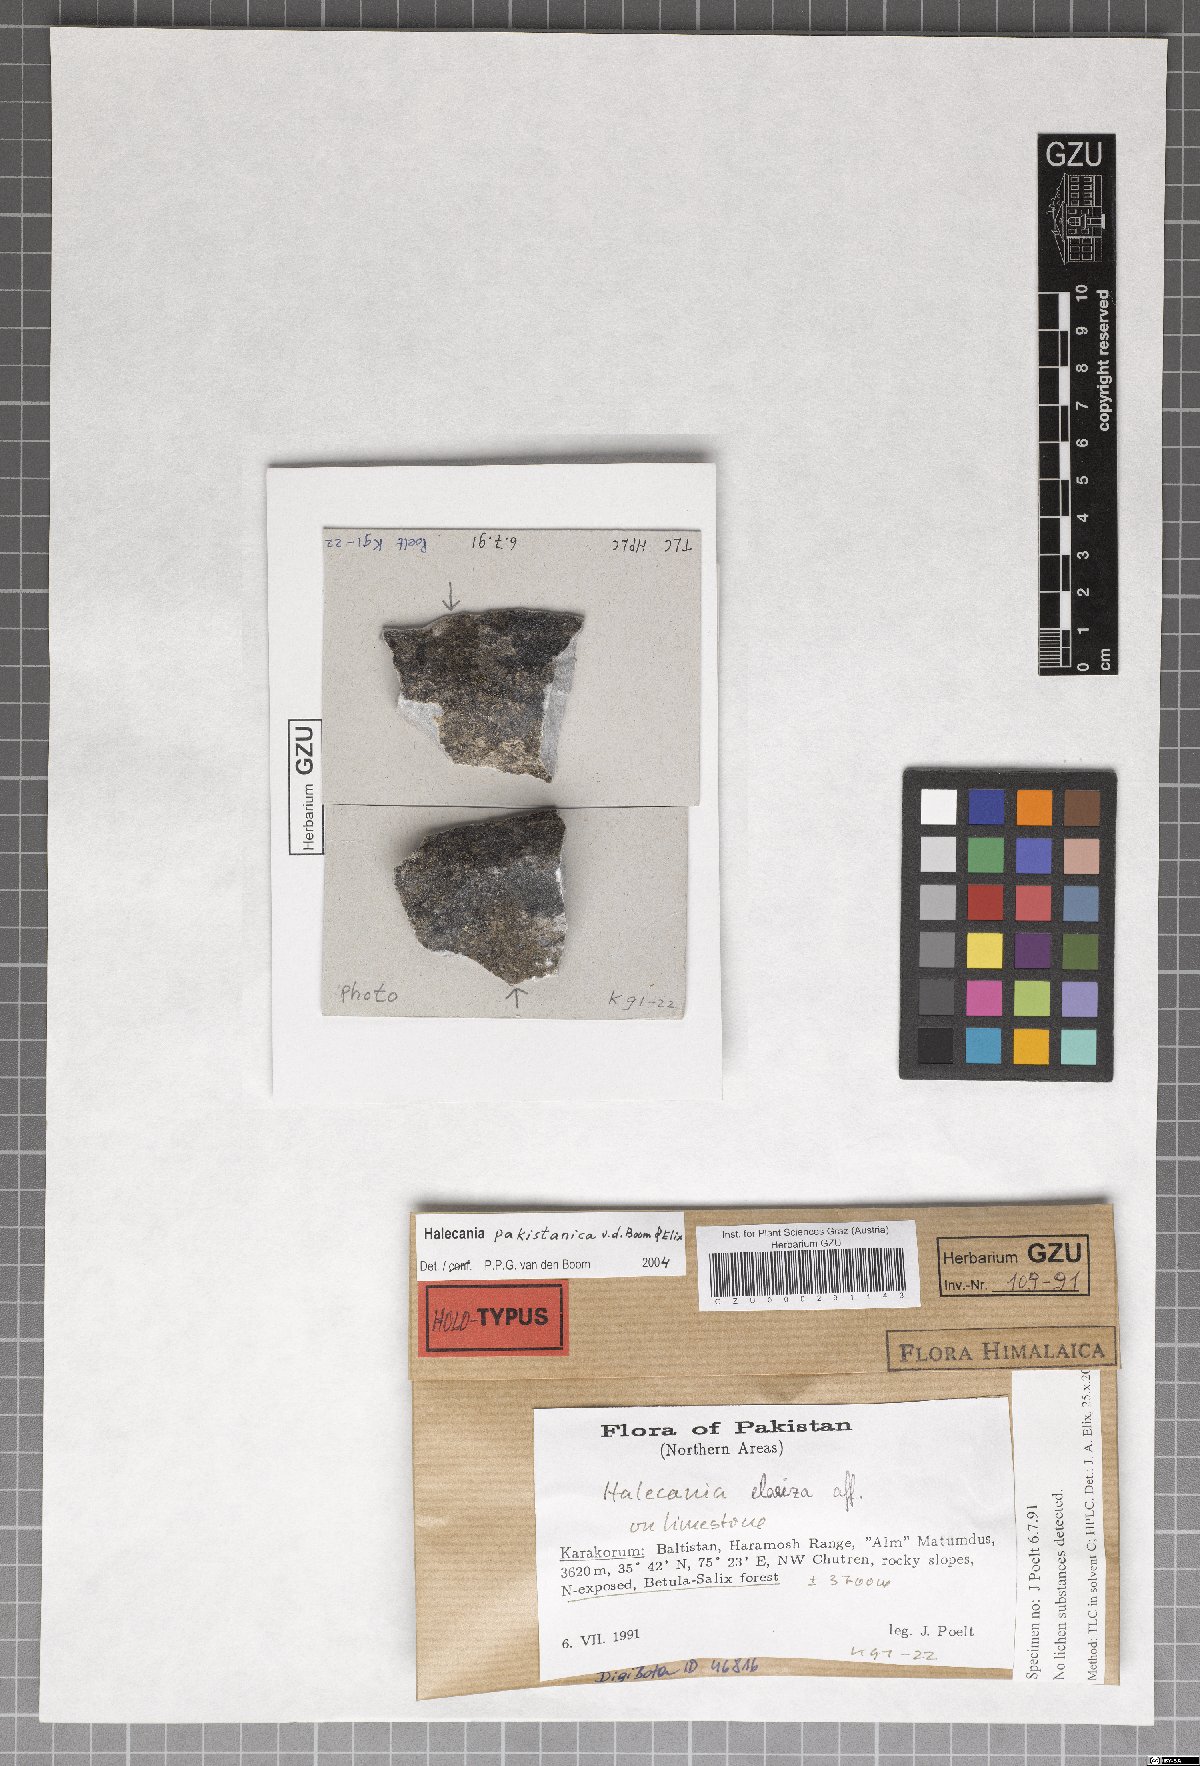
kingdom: Fungi
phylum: Ascomycota
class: Lecanoromycetes
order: Teloschistales
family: Leprocaulaceae
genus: Halecania
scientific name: Halecania pakistanica
